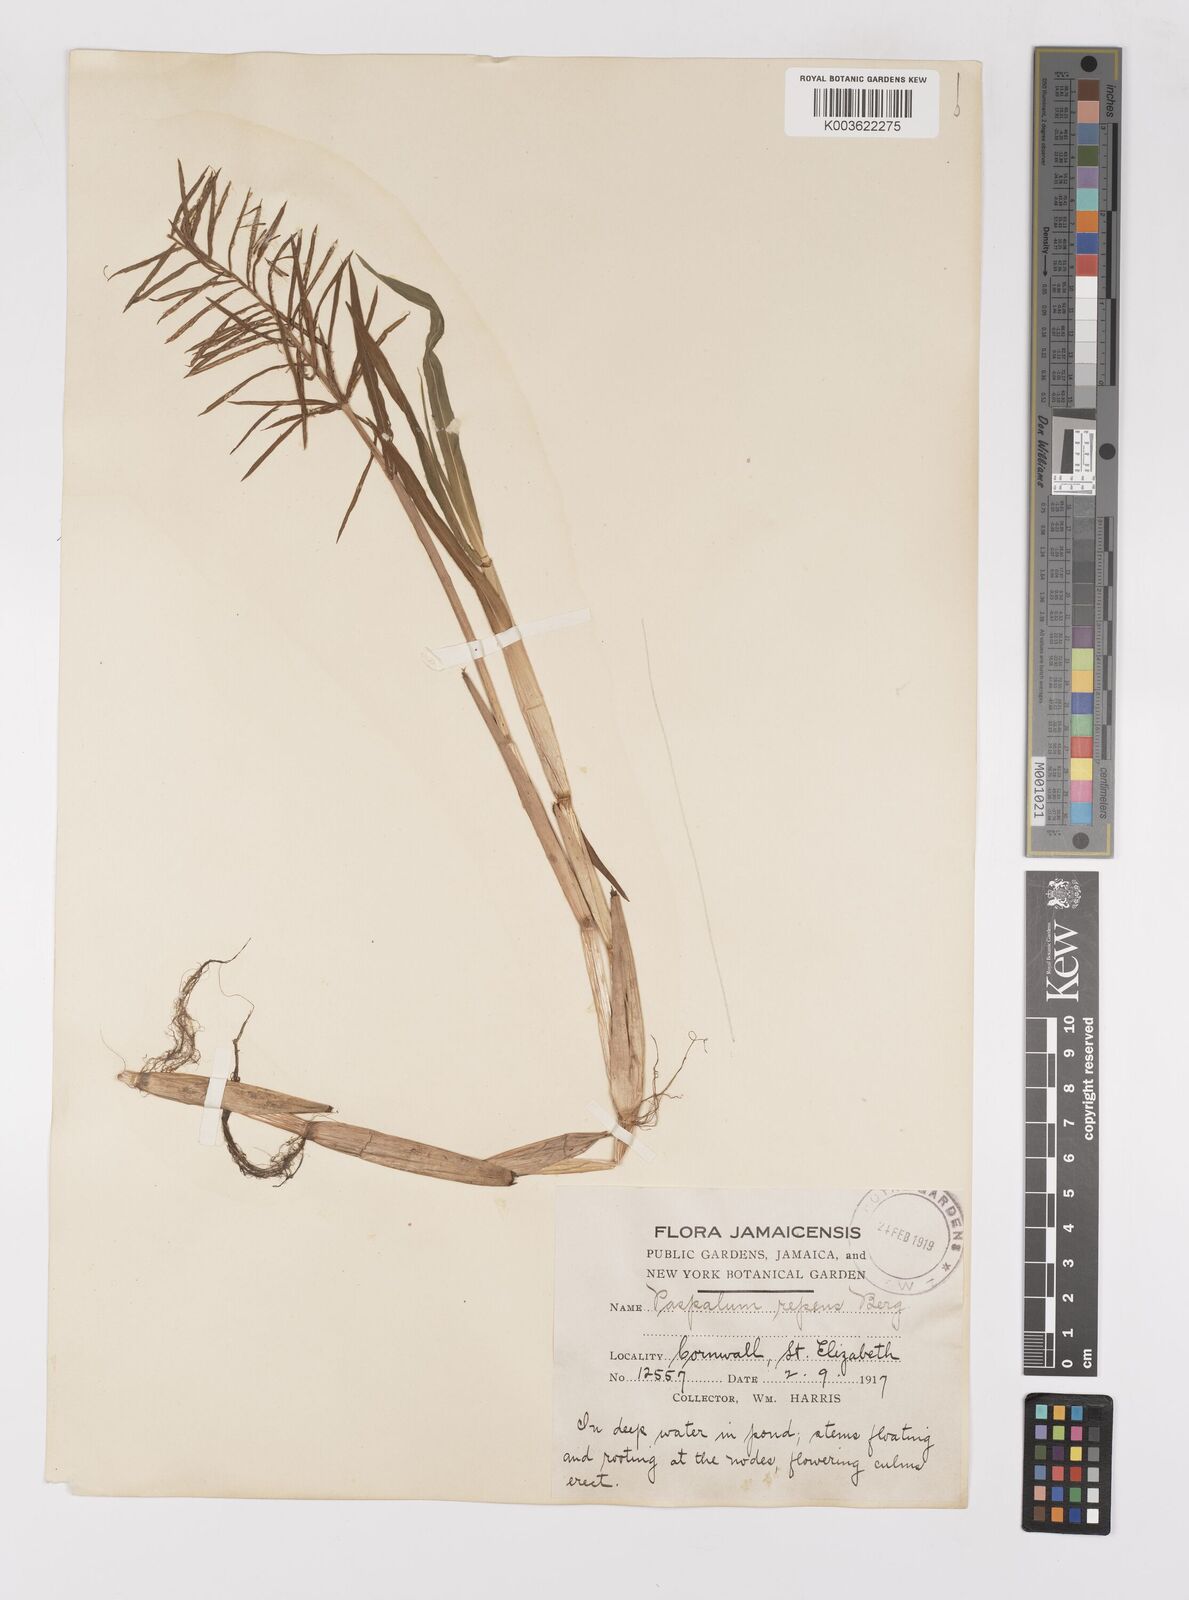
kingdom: Plantae
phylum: Tracheophyta
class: Liliopsida
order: Poales
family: Poaceae
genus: Paspalum
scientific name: Paspalum repens
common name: Water paspalum
